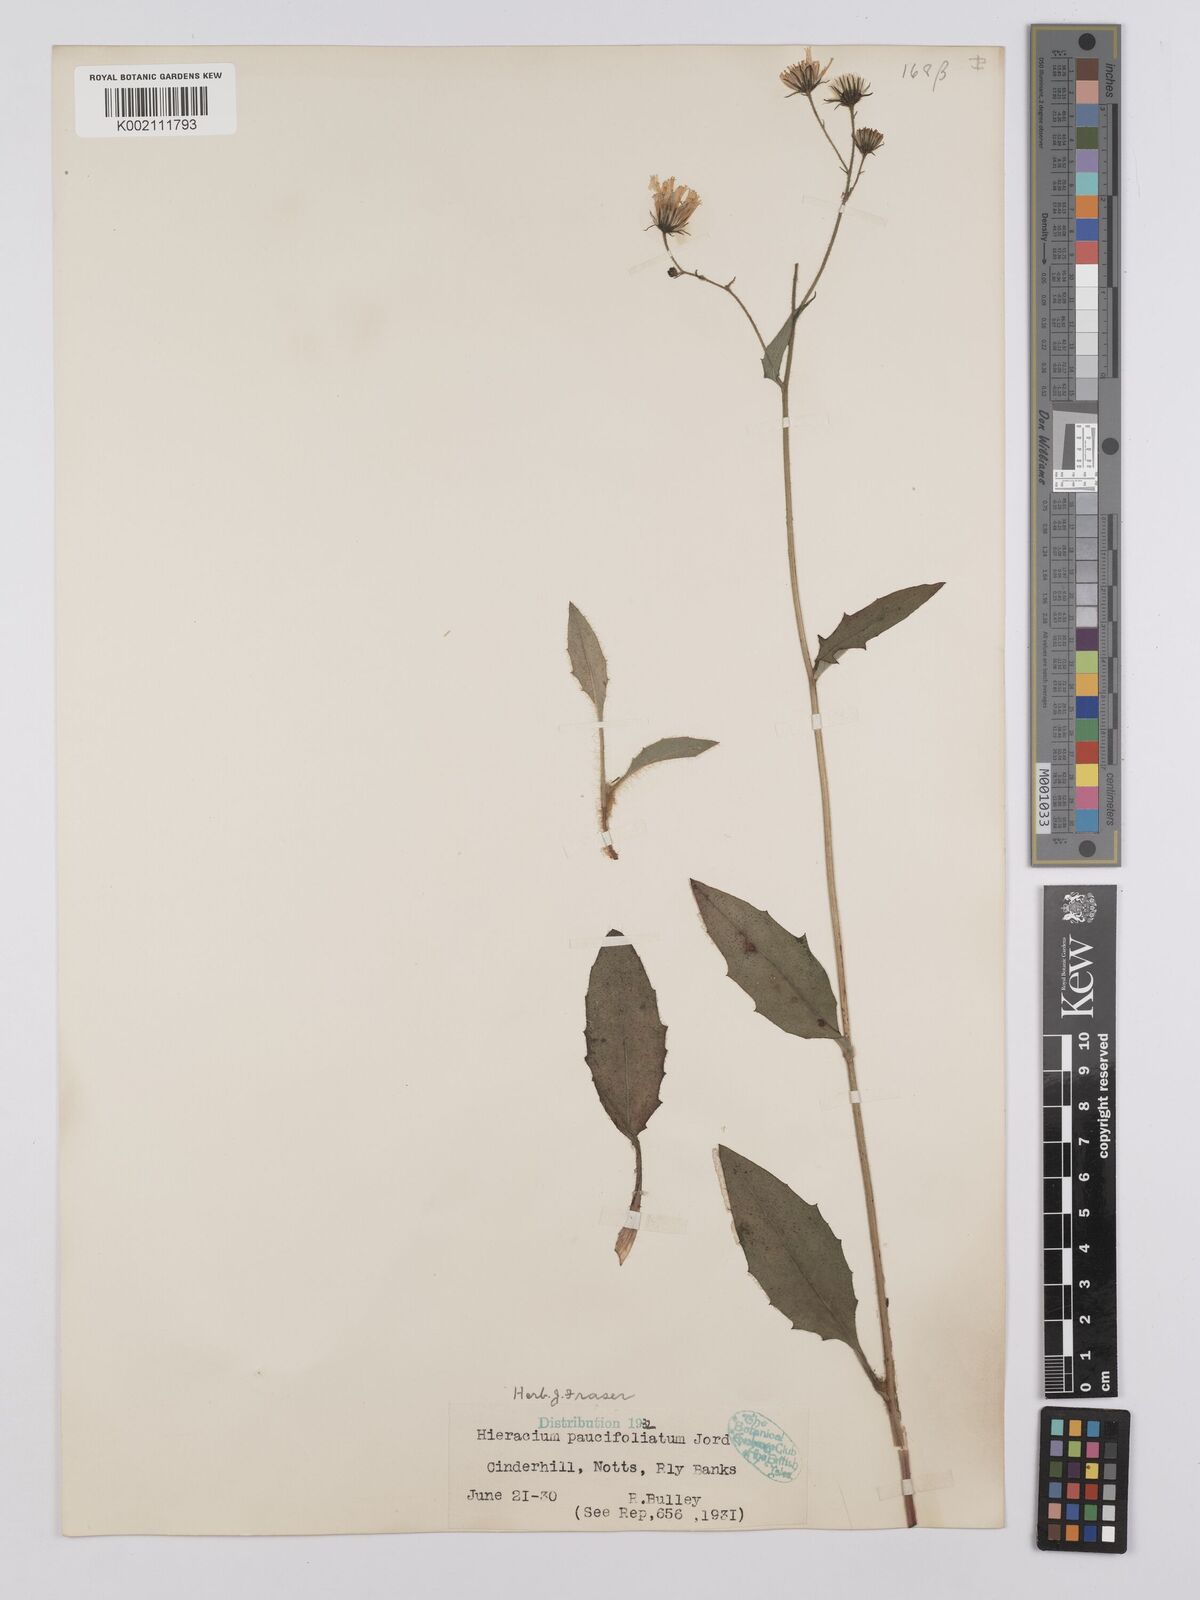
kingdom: Plantae
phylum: Tracheophyta
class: Magnoliopsida
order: Asterales
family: Asteraceae
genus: Hieracium
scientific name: Hieracium lachenalii
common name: Common hawkweed
